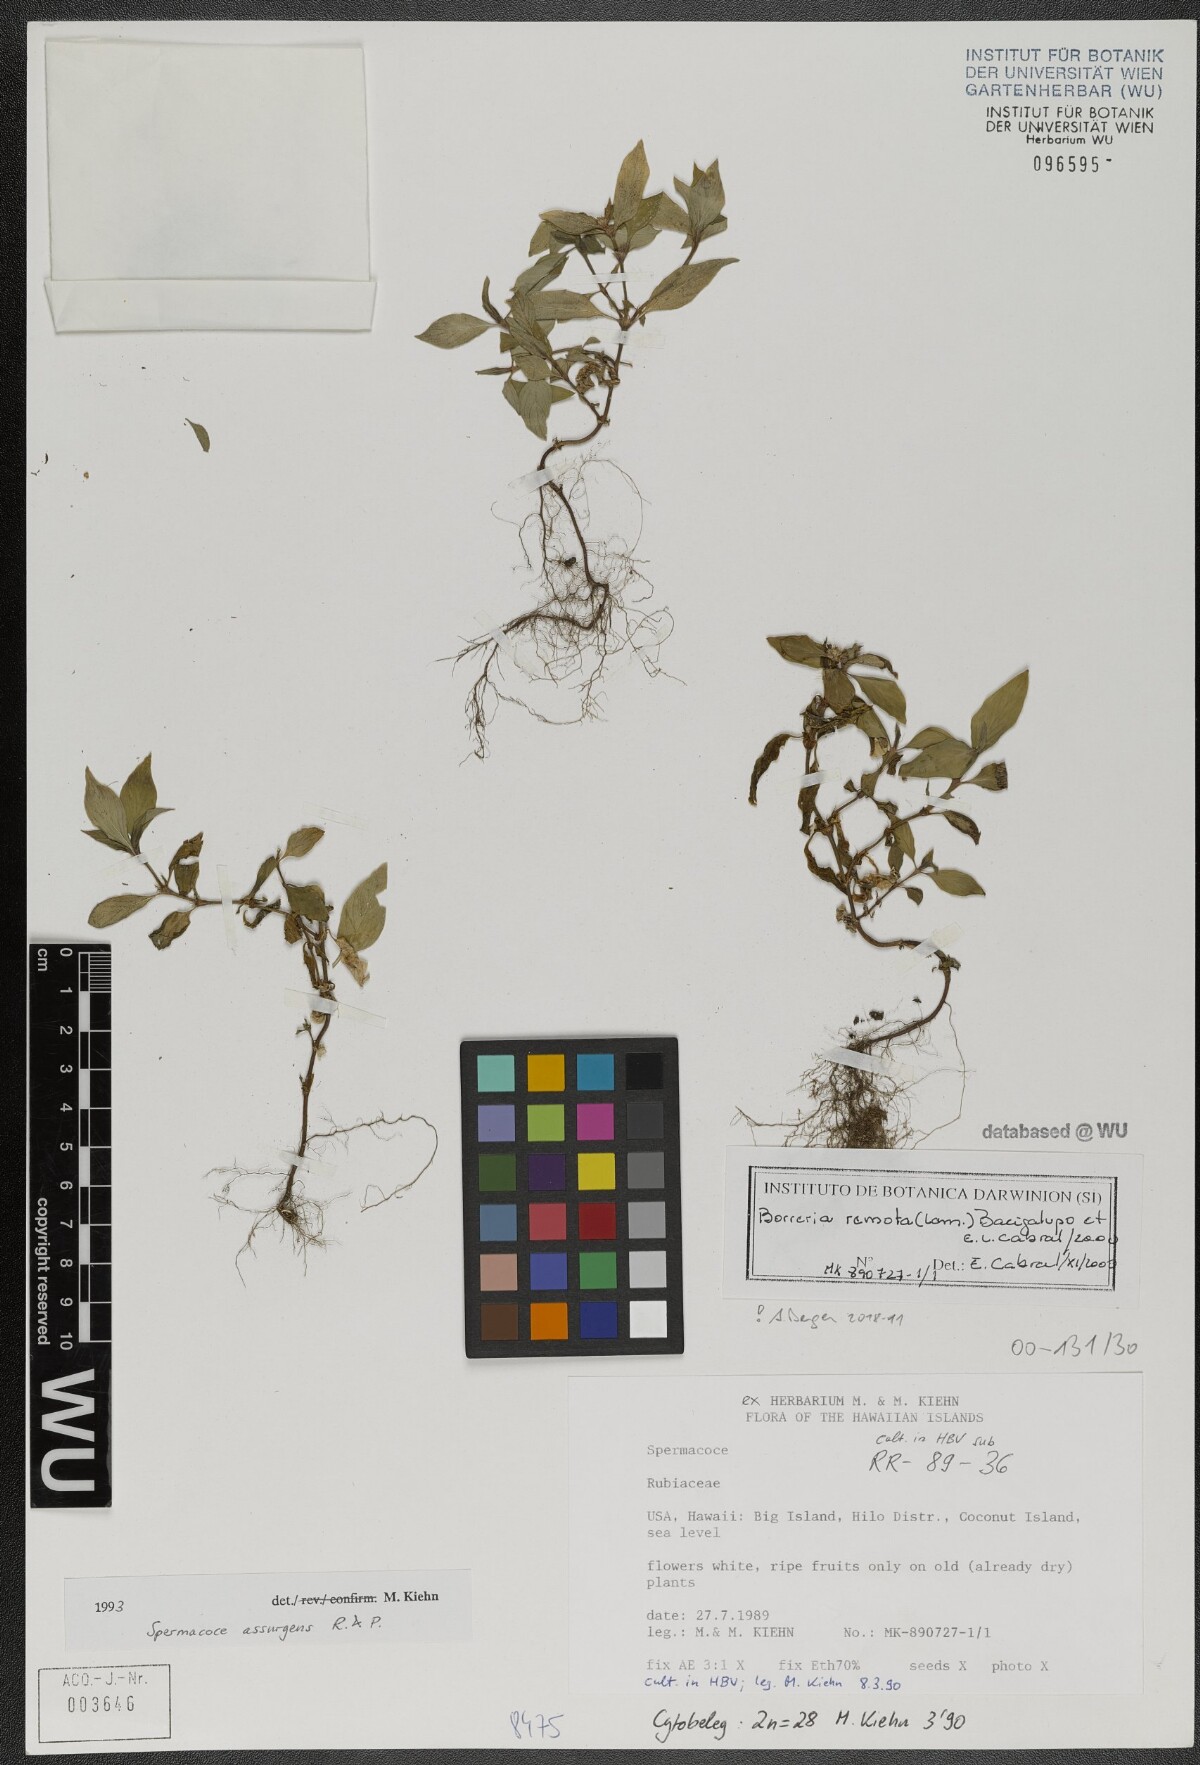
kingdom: Plantae
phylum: Tracheophyta
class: Magnoliopsida
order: Gentianales
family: Rubiaceae
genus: Spermacoce
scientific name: Spermacoce remota
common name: Woodland false buttonweed
